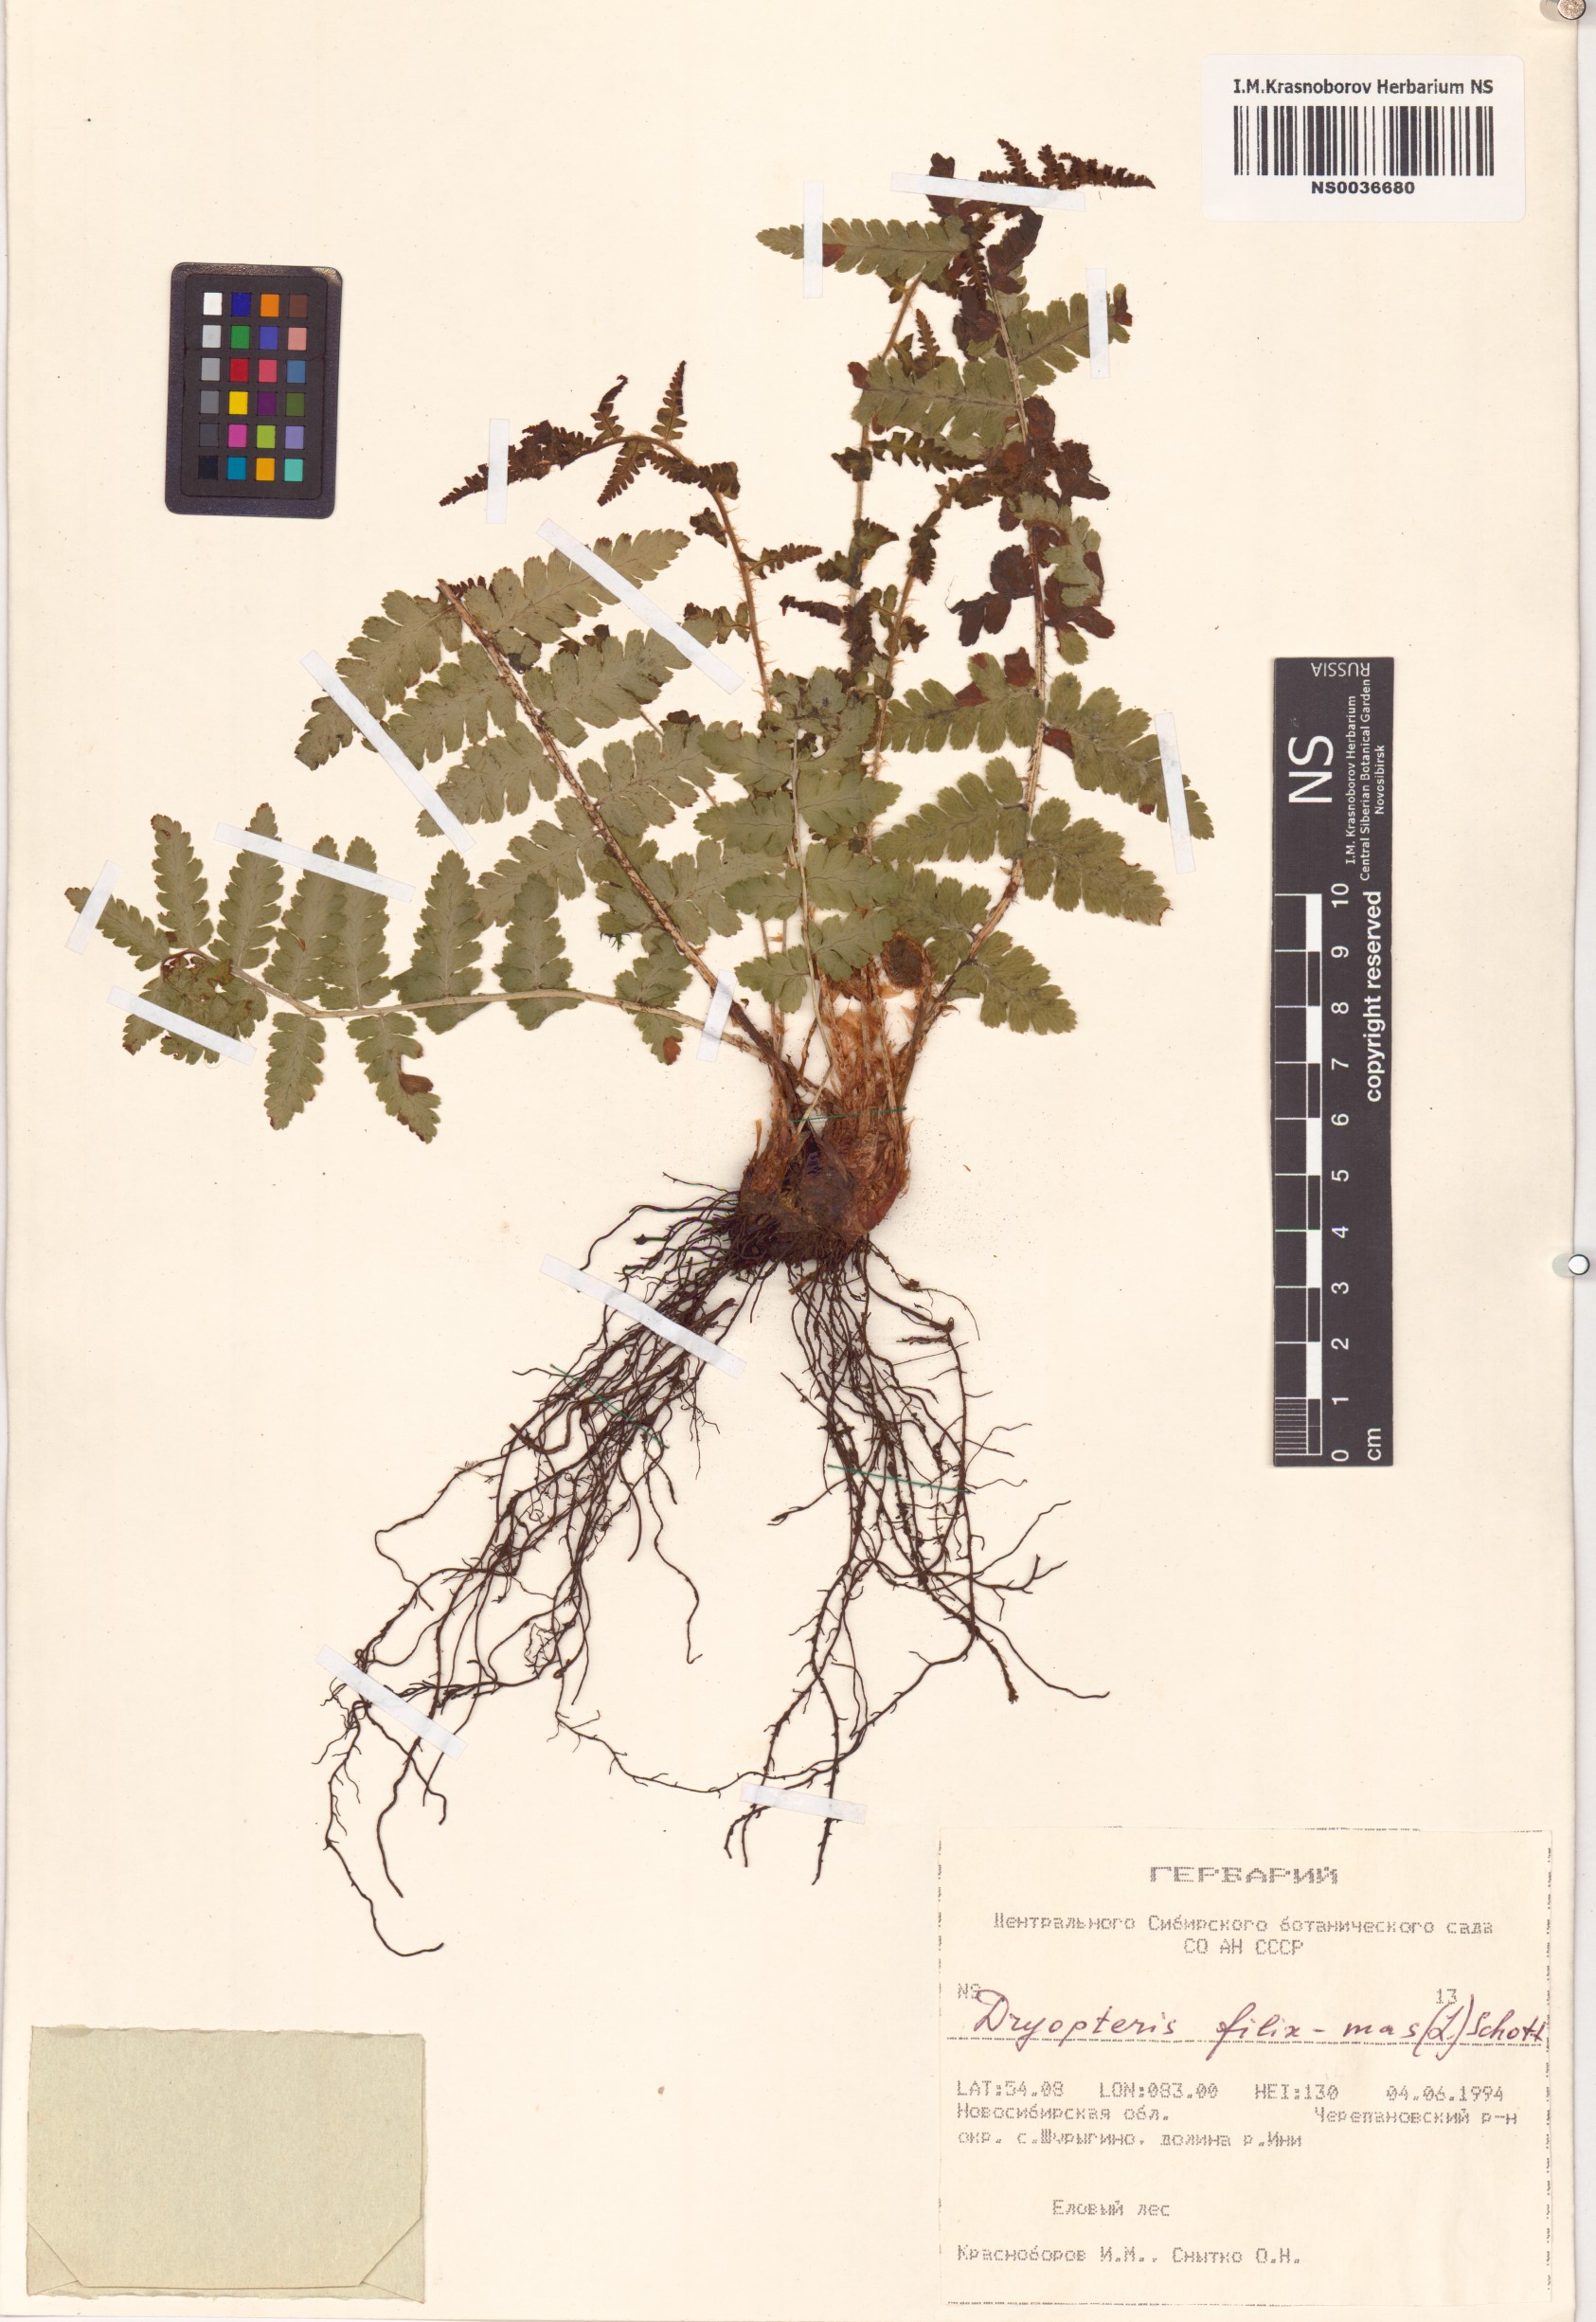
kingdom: Plantae
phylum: Tracheophyta
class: Polypodiopsida
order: Polypodiales
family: Dryopteridaceae
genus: Dryopteris
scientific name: Dryopteris filix-mas
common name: Male fern
